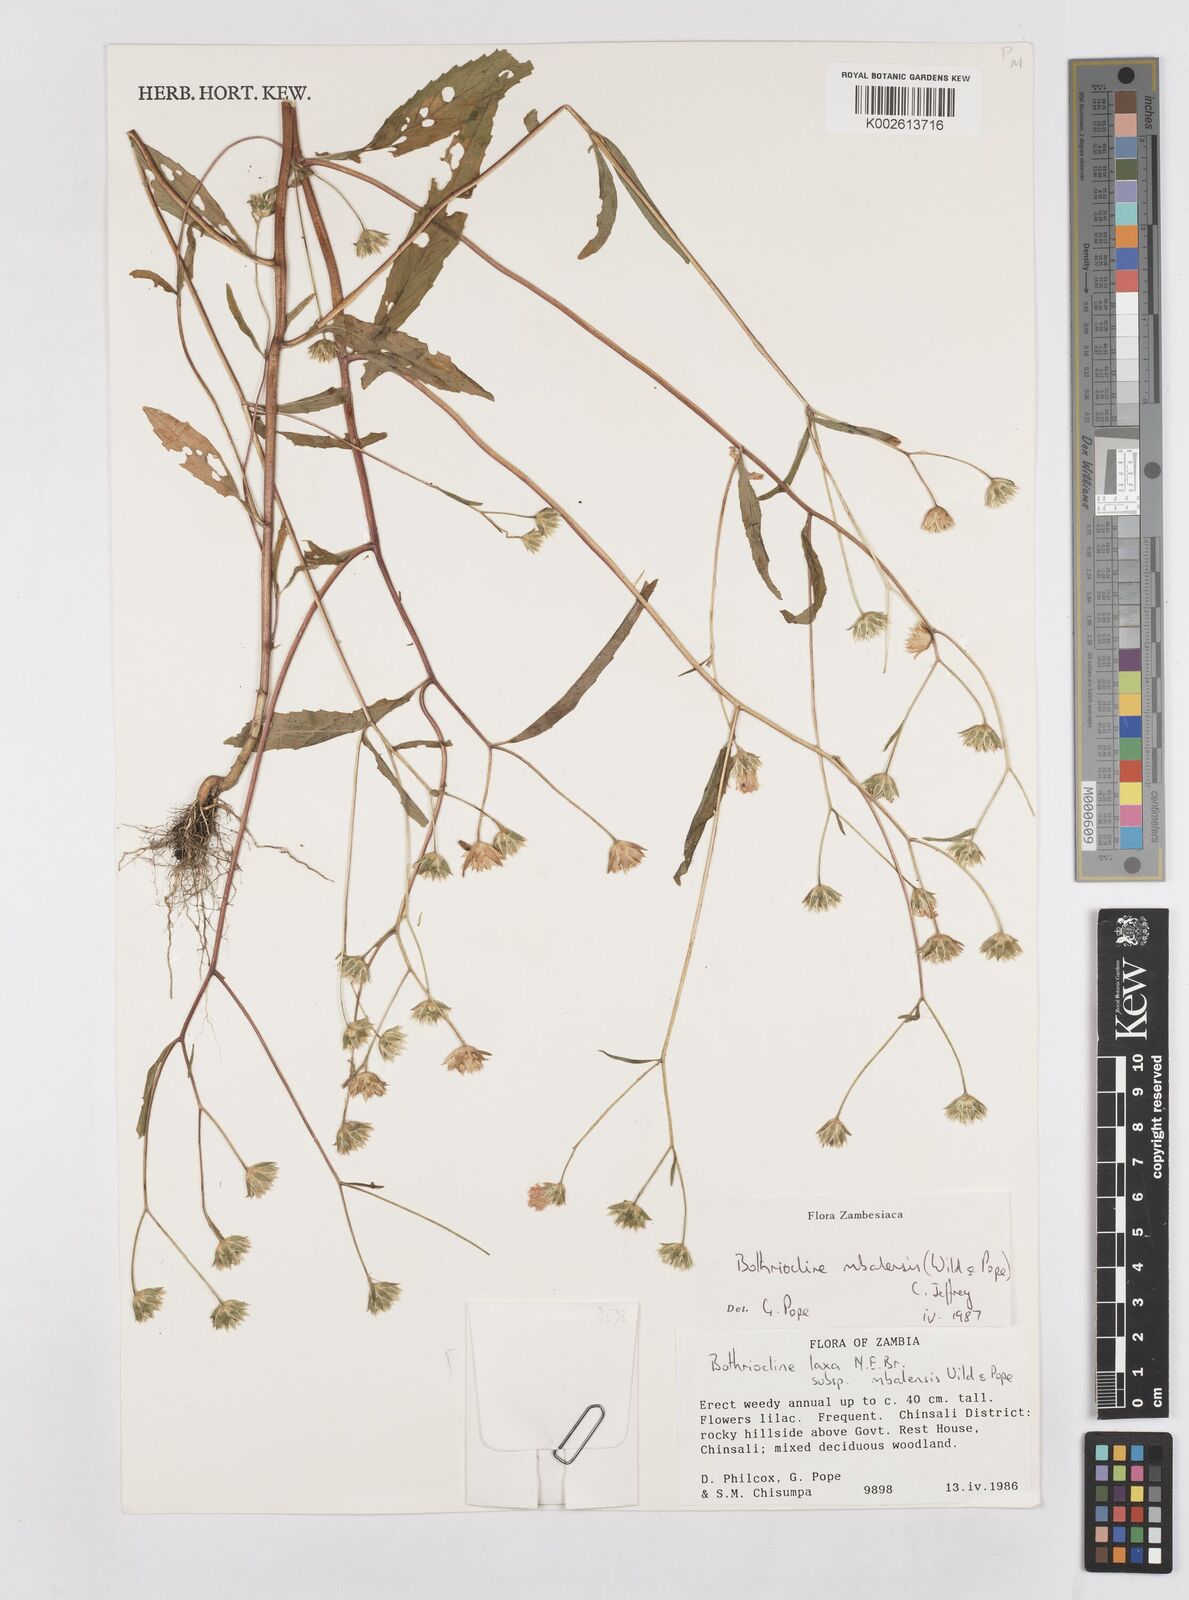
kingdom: Plantae
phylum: Tracheophyta
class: Magnoliopsida
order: Asterales
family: Asteraceae
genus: Bothriocline
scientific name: Bothriocline mbalensis
